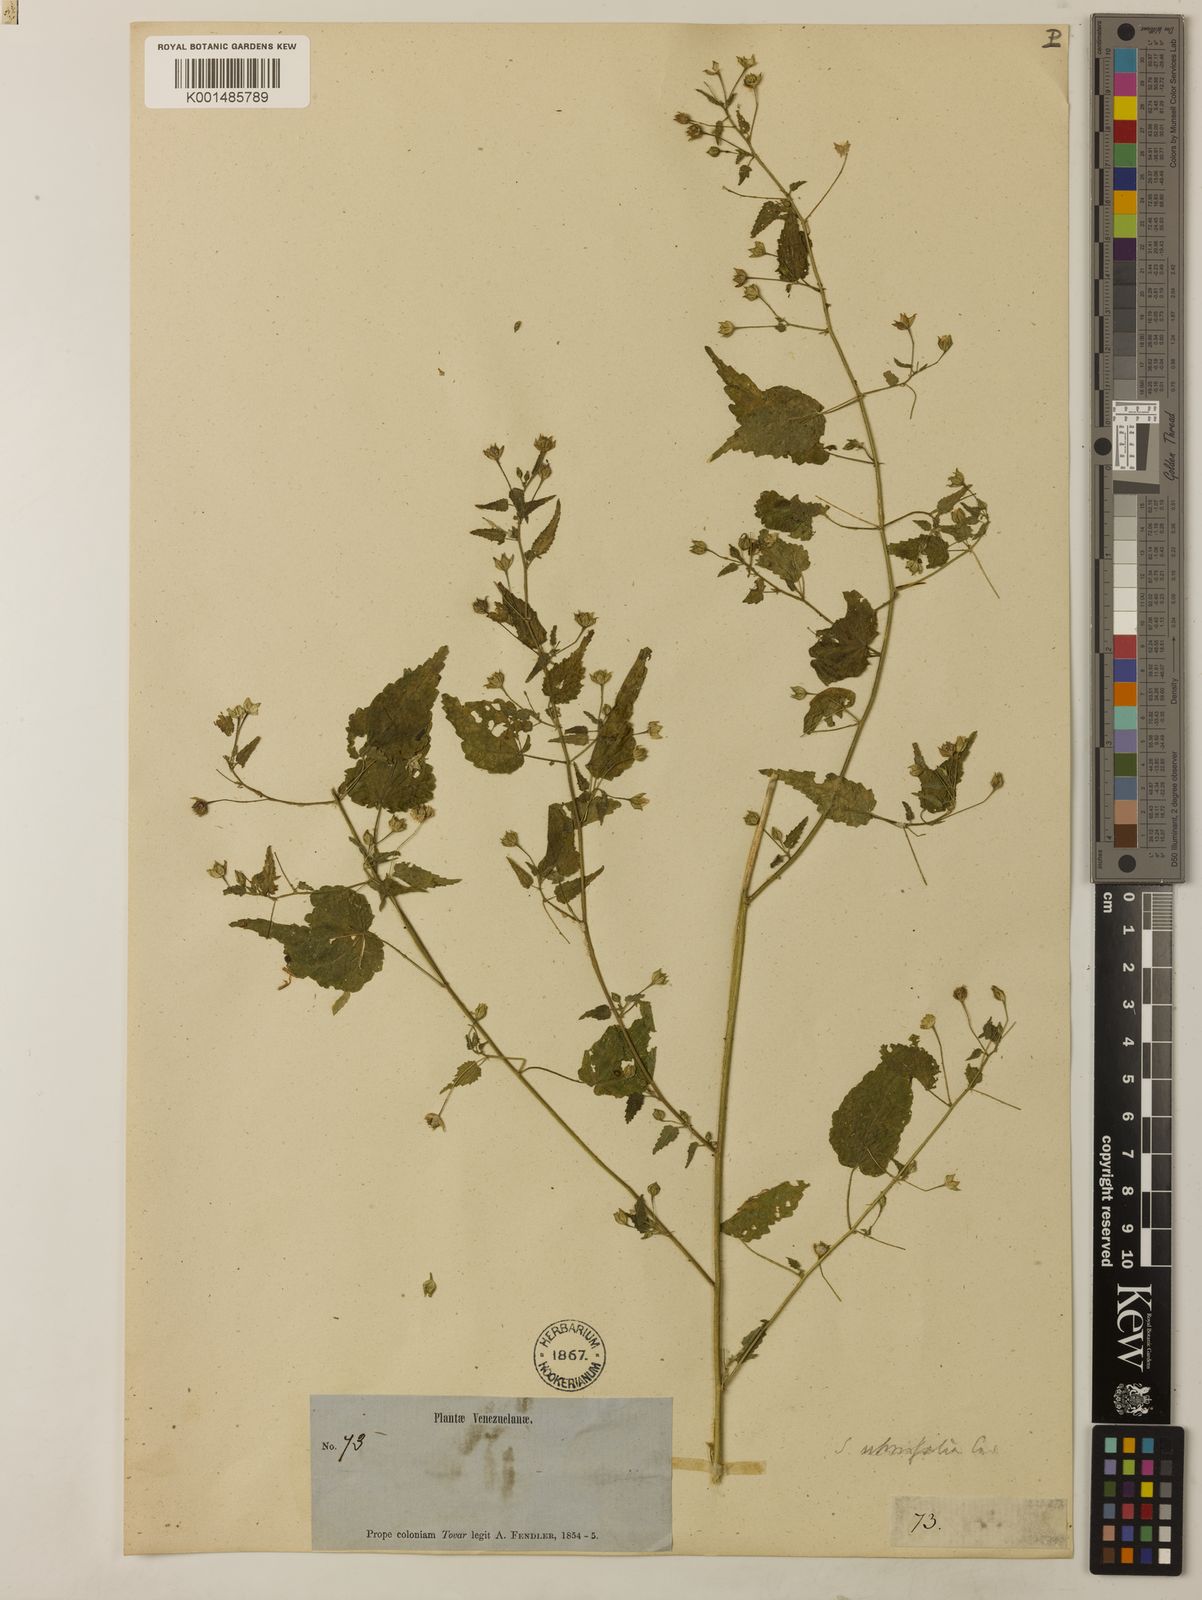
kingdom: Plantae
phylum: Tracheophyta
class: Magnoliopsida
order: Malvales
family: Malvaceae
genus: Sida
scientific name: Sida glabra
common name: Smooth fanpetals
